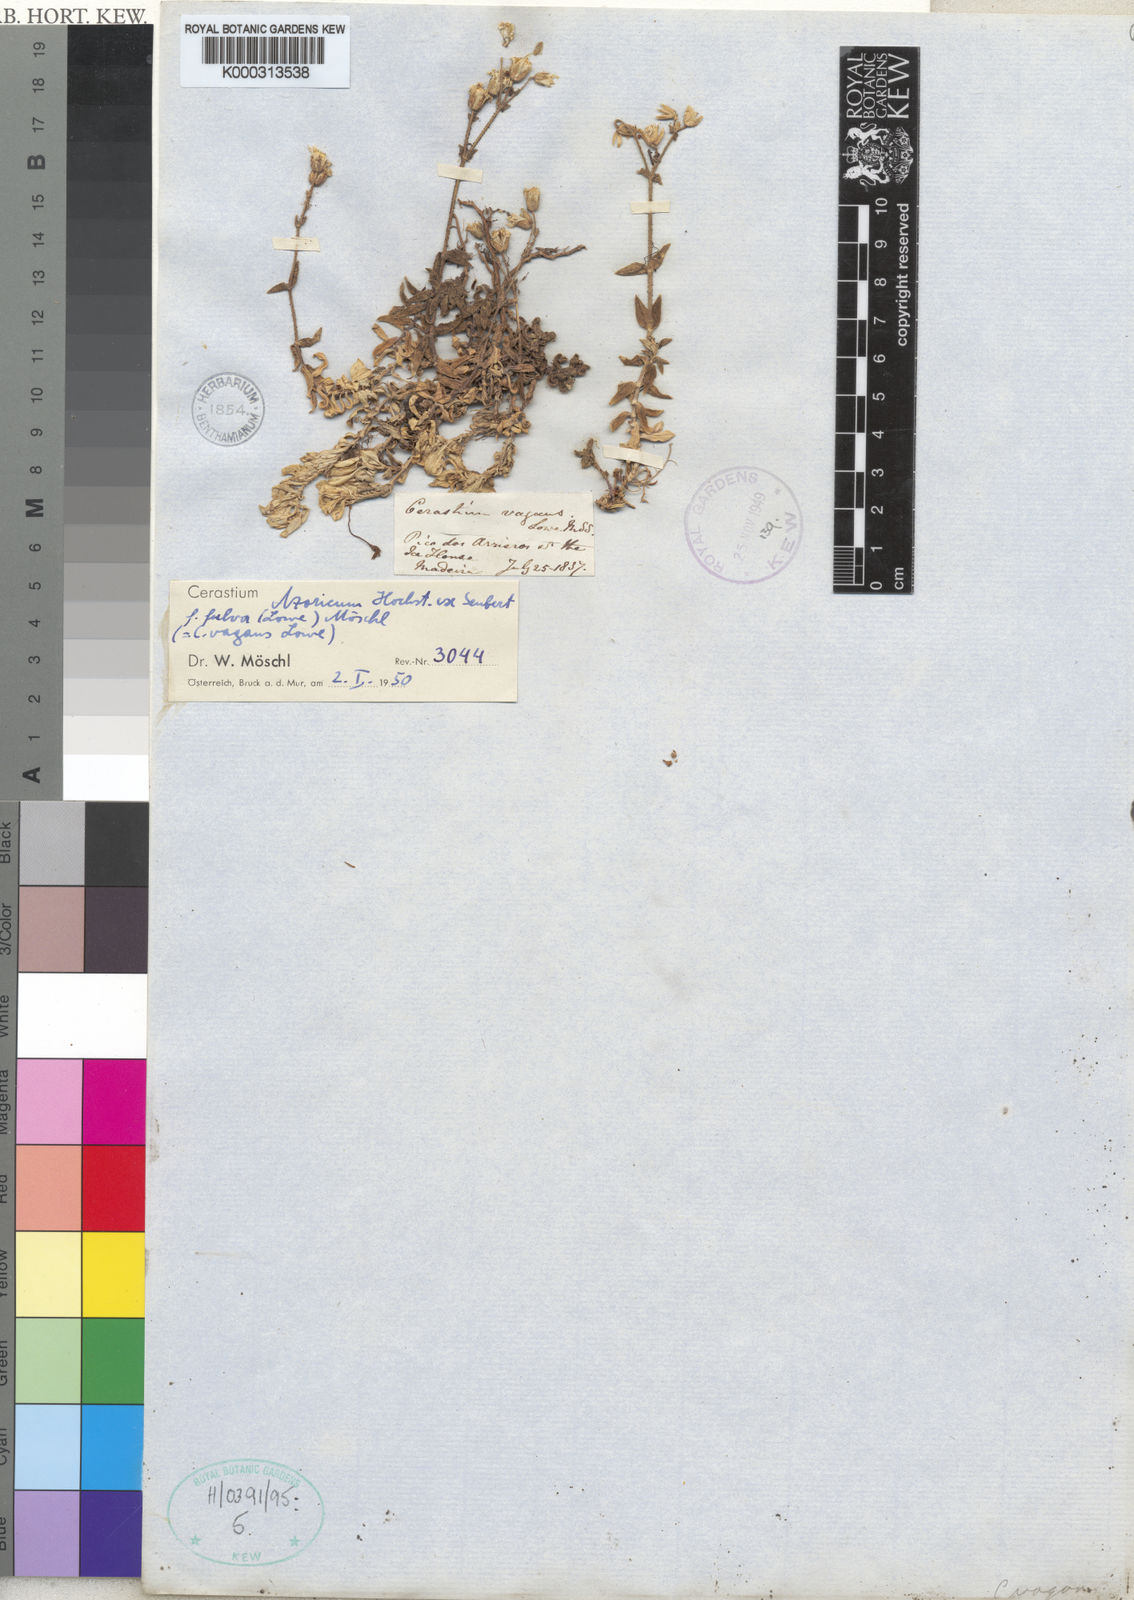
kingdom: Plantae
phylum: Tracheophyta
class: Magnoliopsida
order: Caryophyllales
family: Caryophyllaceae
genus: Cerastium
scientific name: Cerastium azoricum
